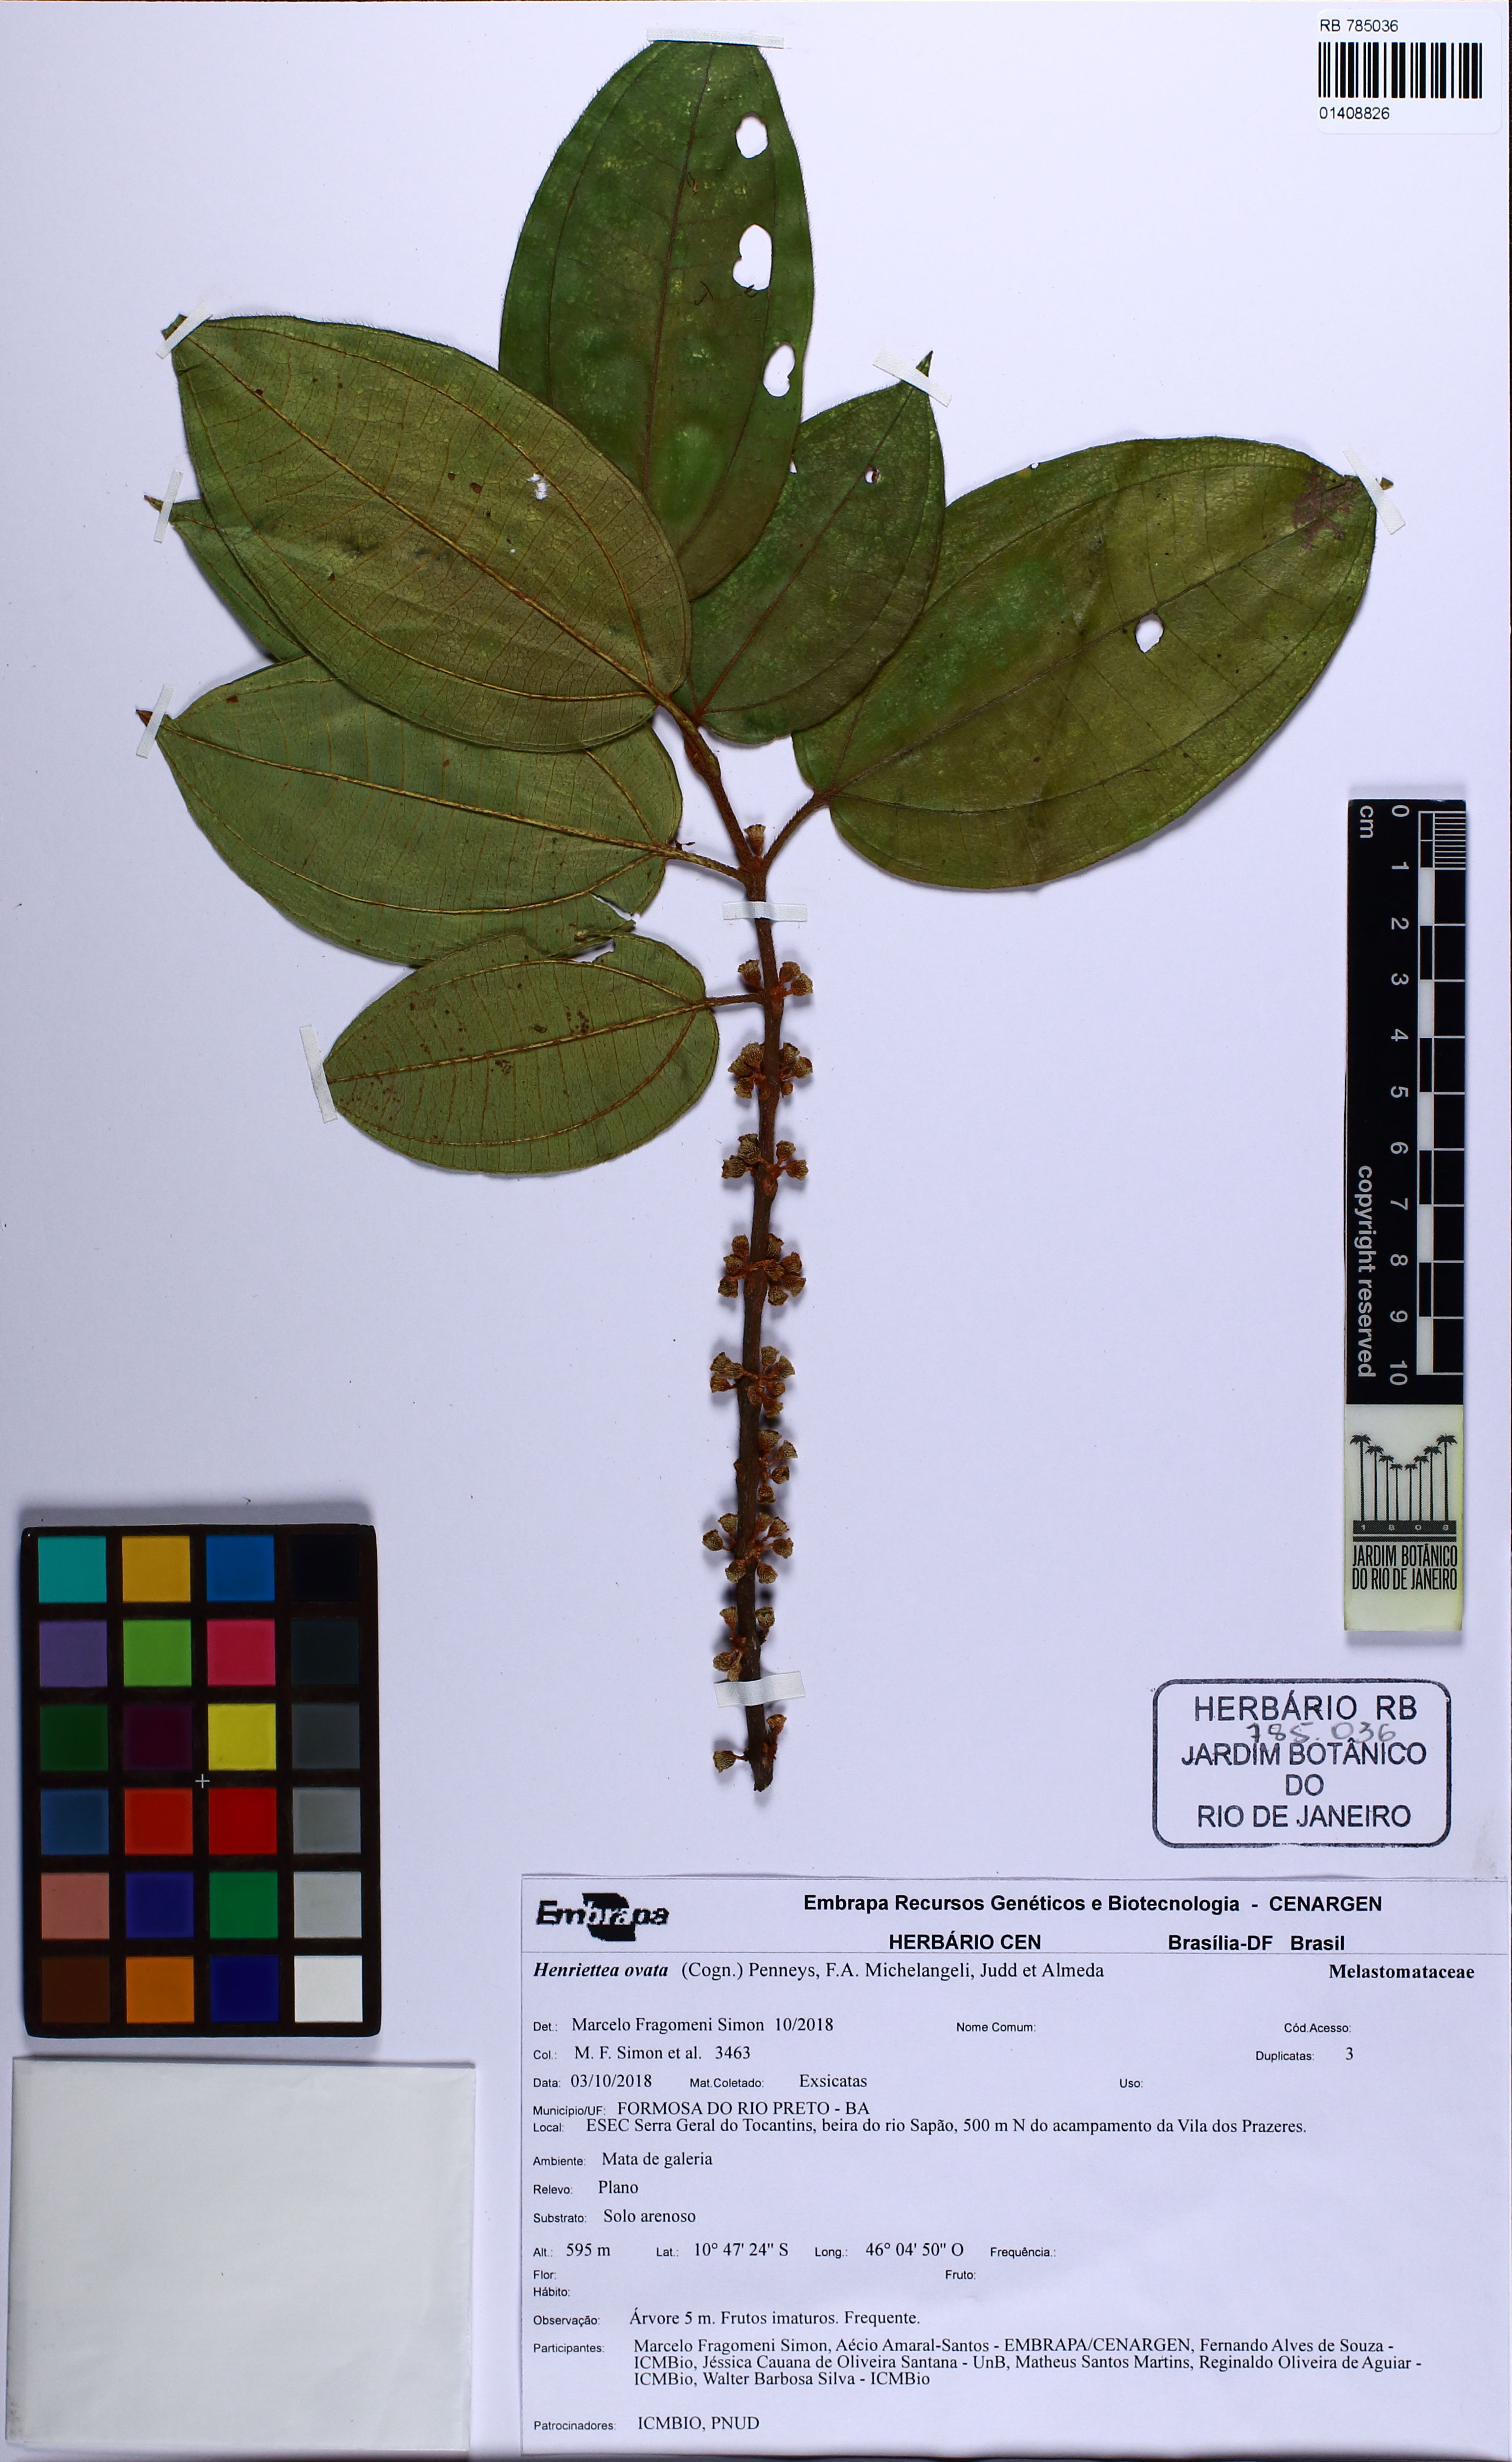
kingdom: Plantae
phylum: Tracheophyta
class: Magnoliopsida
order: Myrtales
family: Melastomataceae
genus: Henriettea
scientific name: Henriettea ovata
